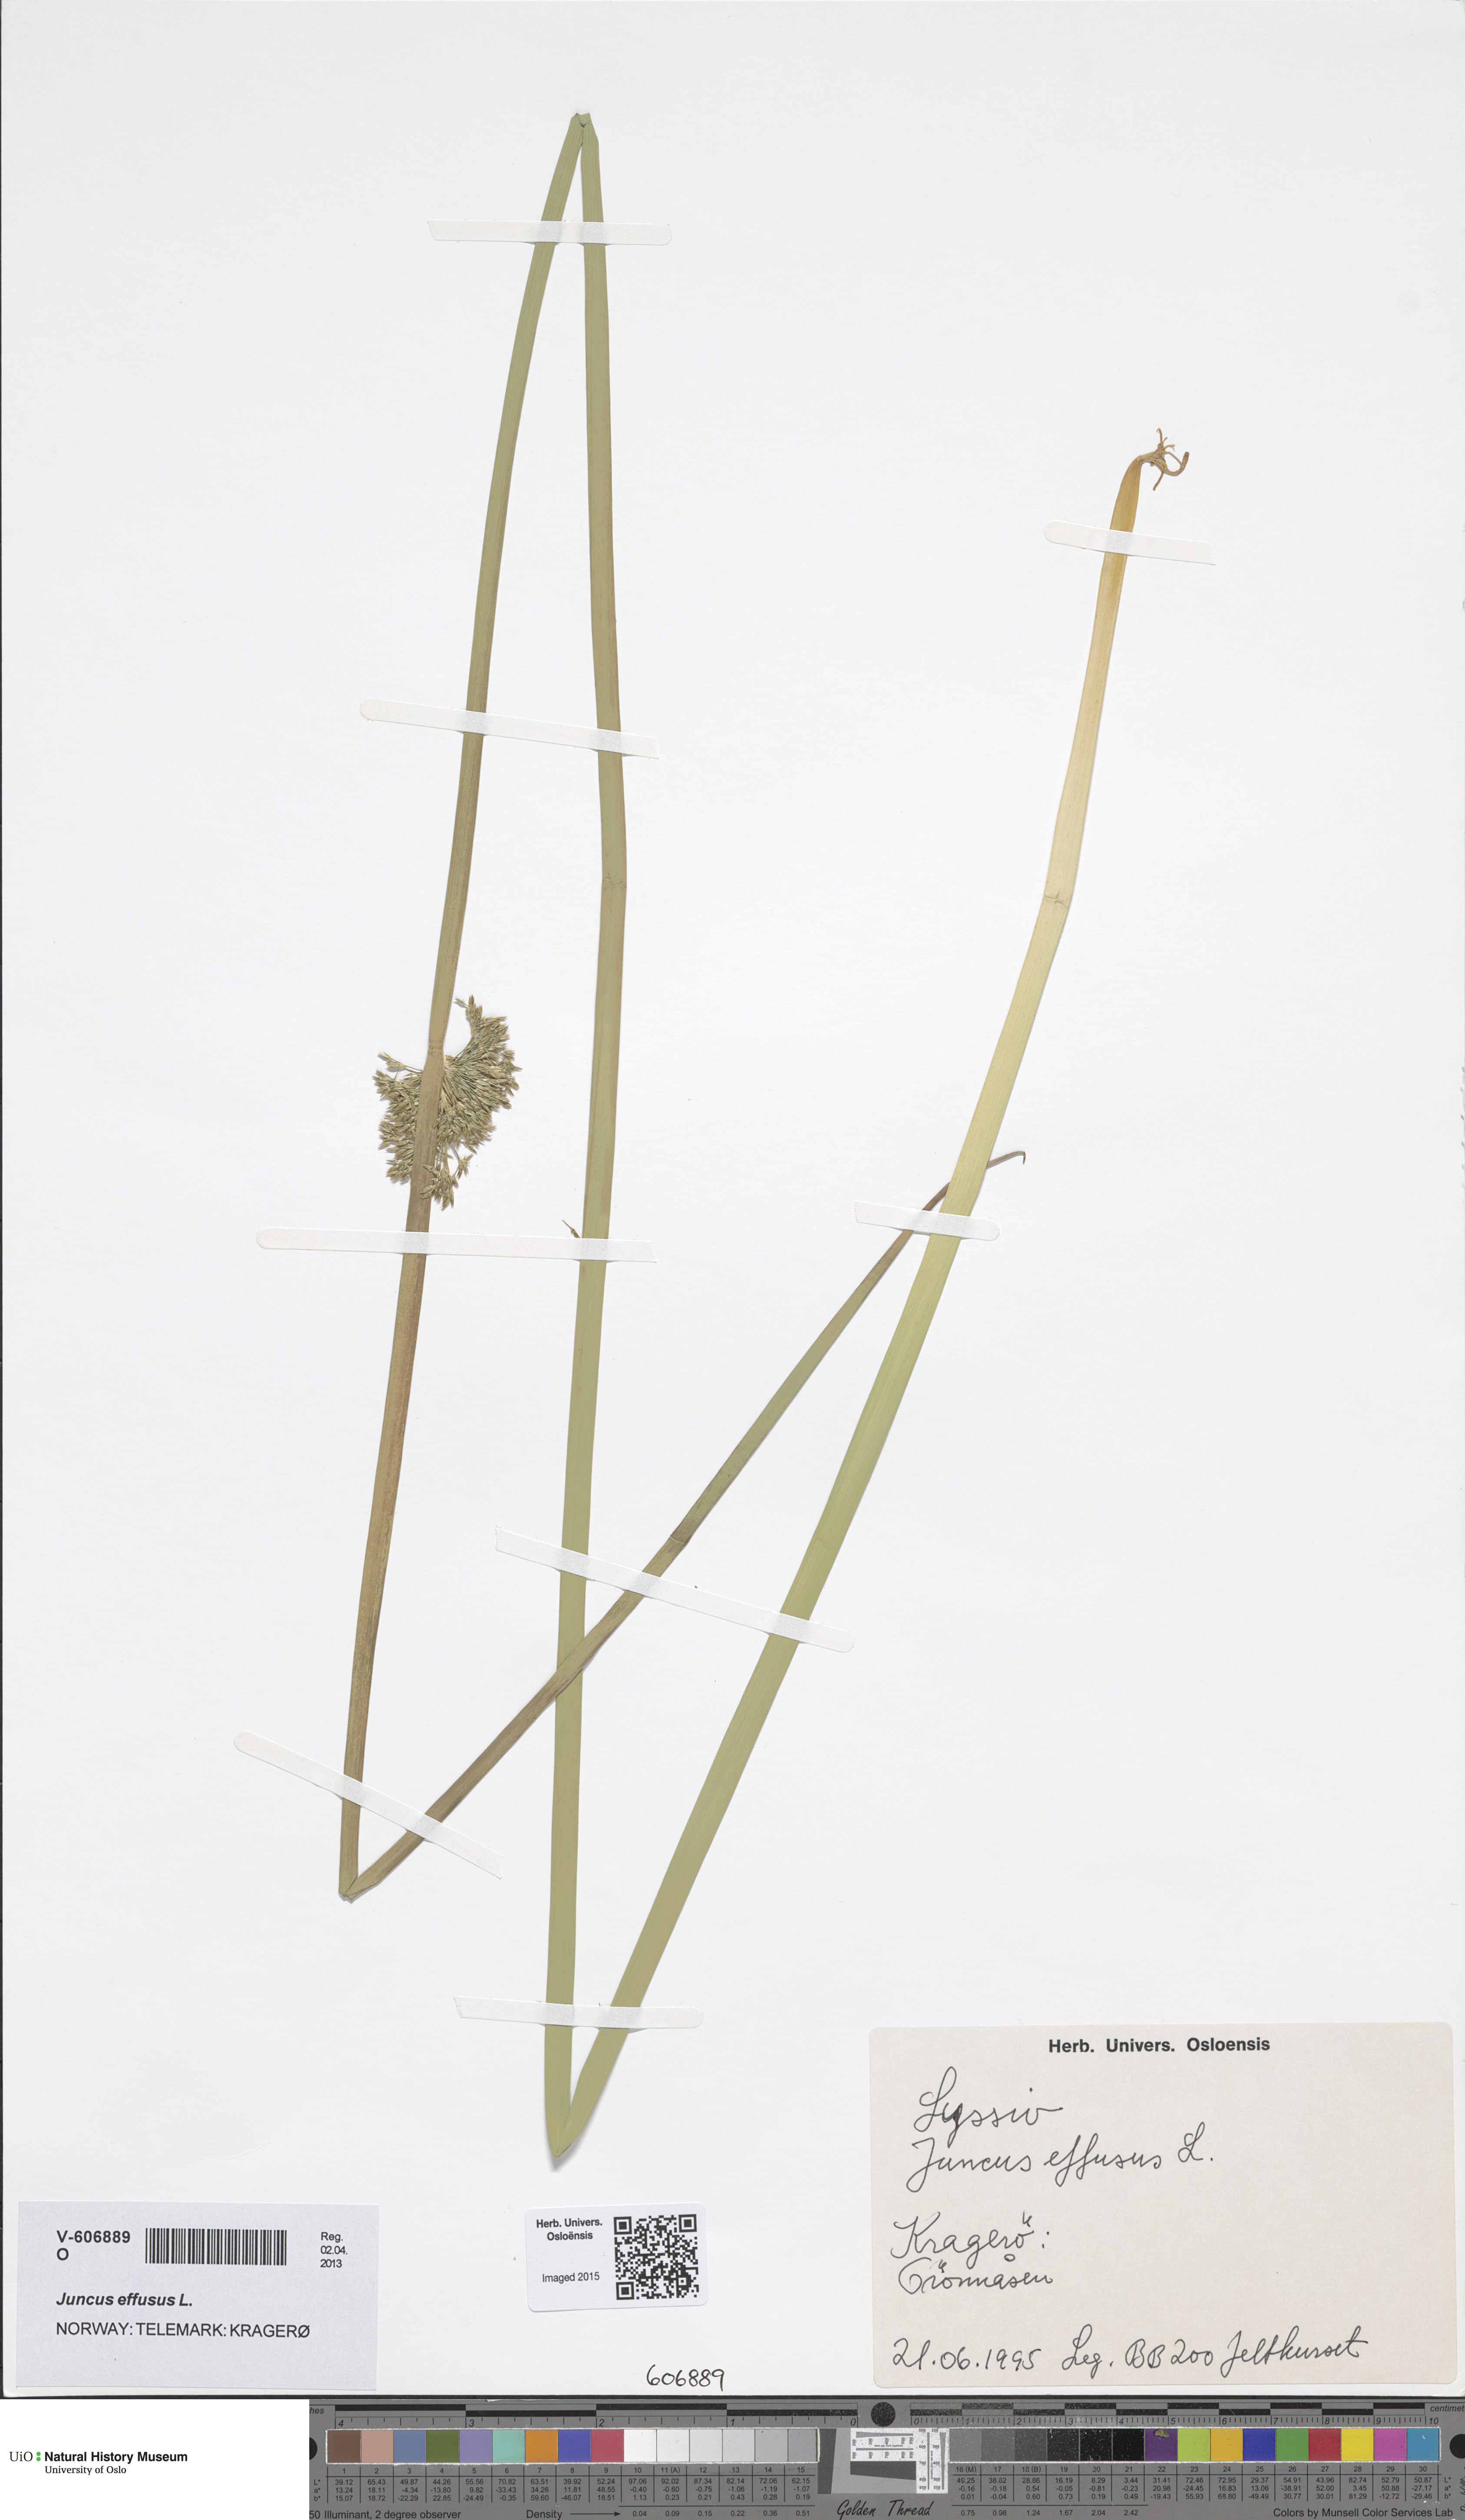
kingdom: Plantae
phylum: Tracheophyta
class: Liliopsida
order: Poales
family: Juncaceae
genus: Juncus
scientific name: Juncus effusus
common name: Soft rush
